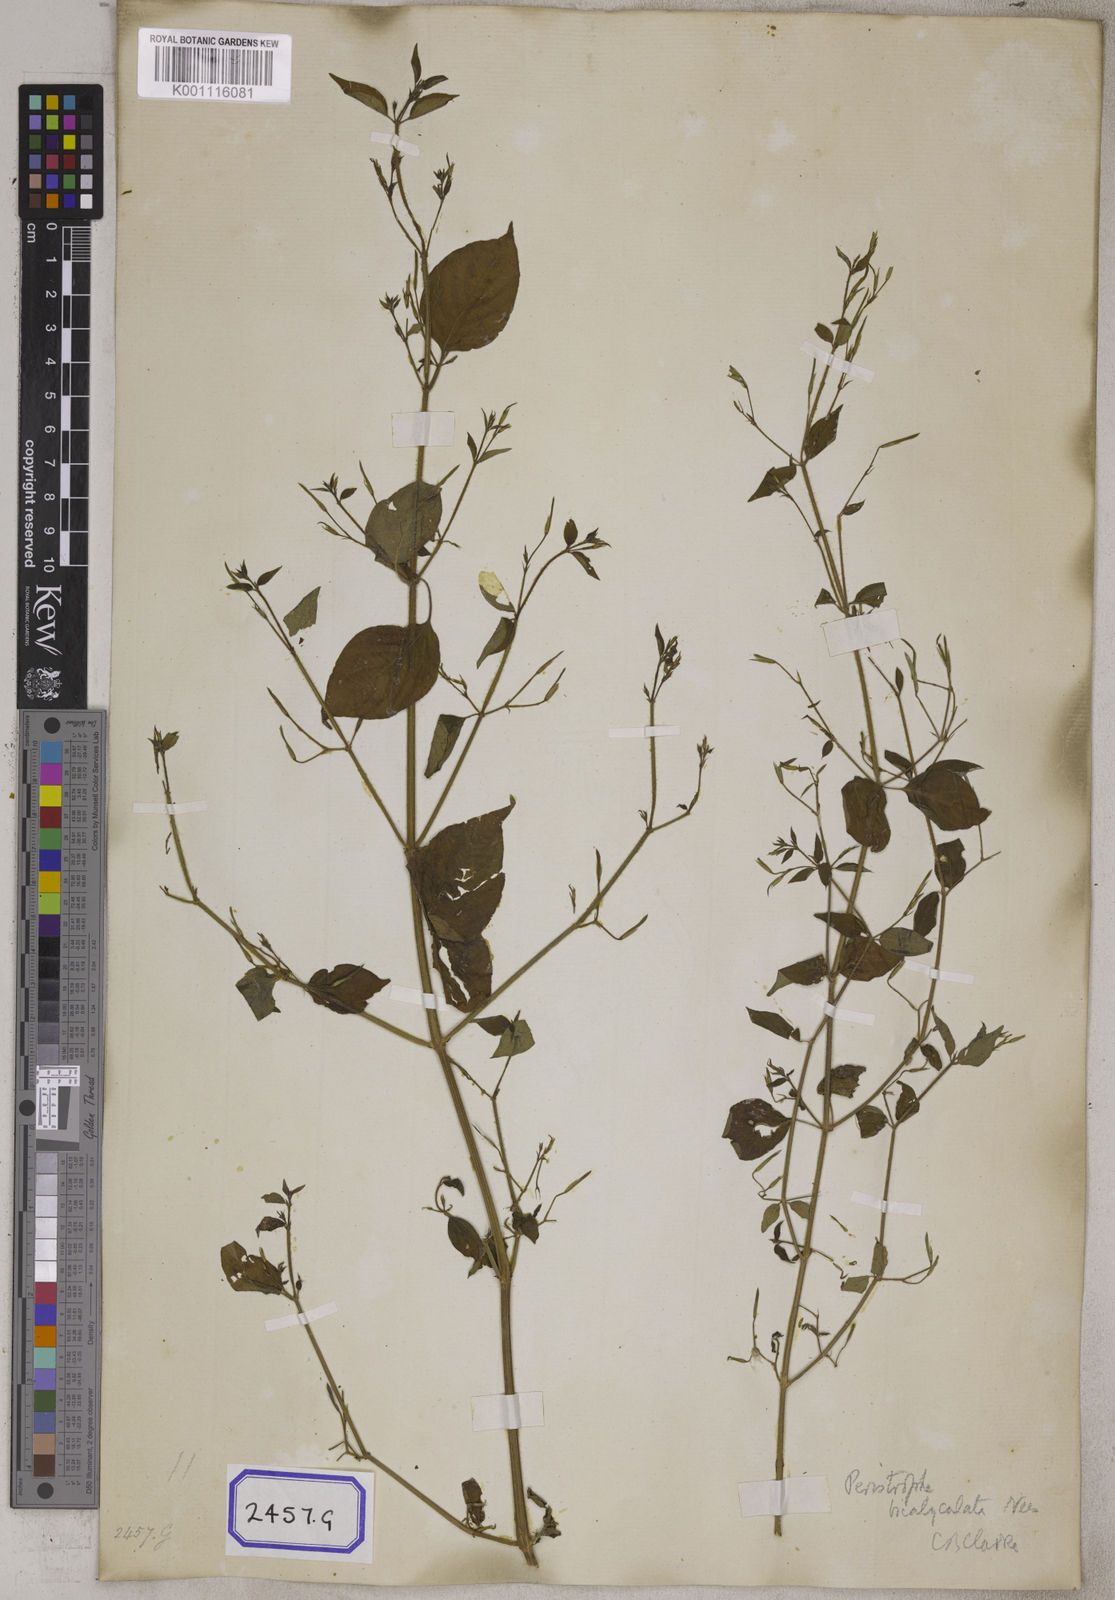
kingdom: Plantae
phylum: Tracheophyta
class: Magnoliopsida
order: Lamiales
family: Acanthaceae
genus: Dicliptera
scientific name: Dicliptera paniculata
